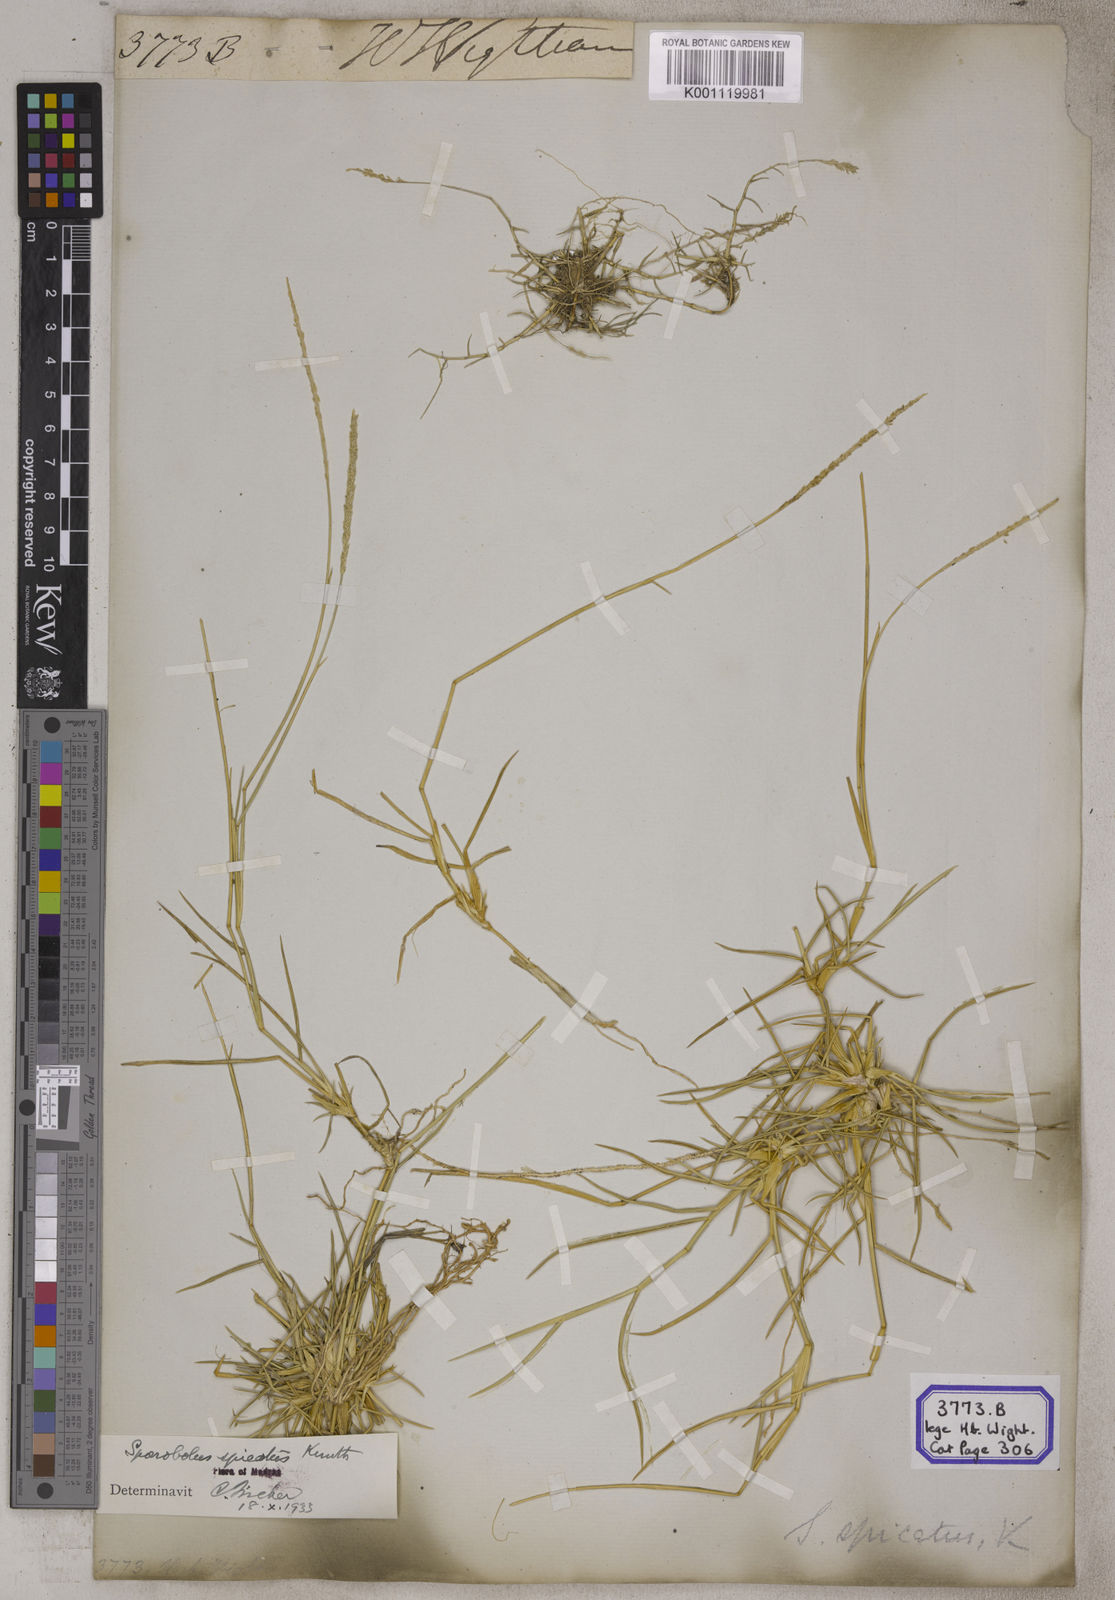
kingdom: Plantae
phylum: Tracheophyta
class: Liliopsida
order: Poales
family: Poaceae
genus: Sporobolus
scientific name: Sporobolus
